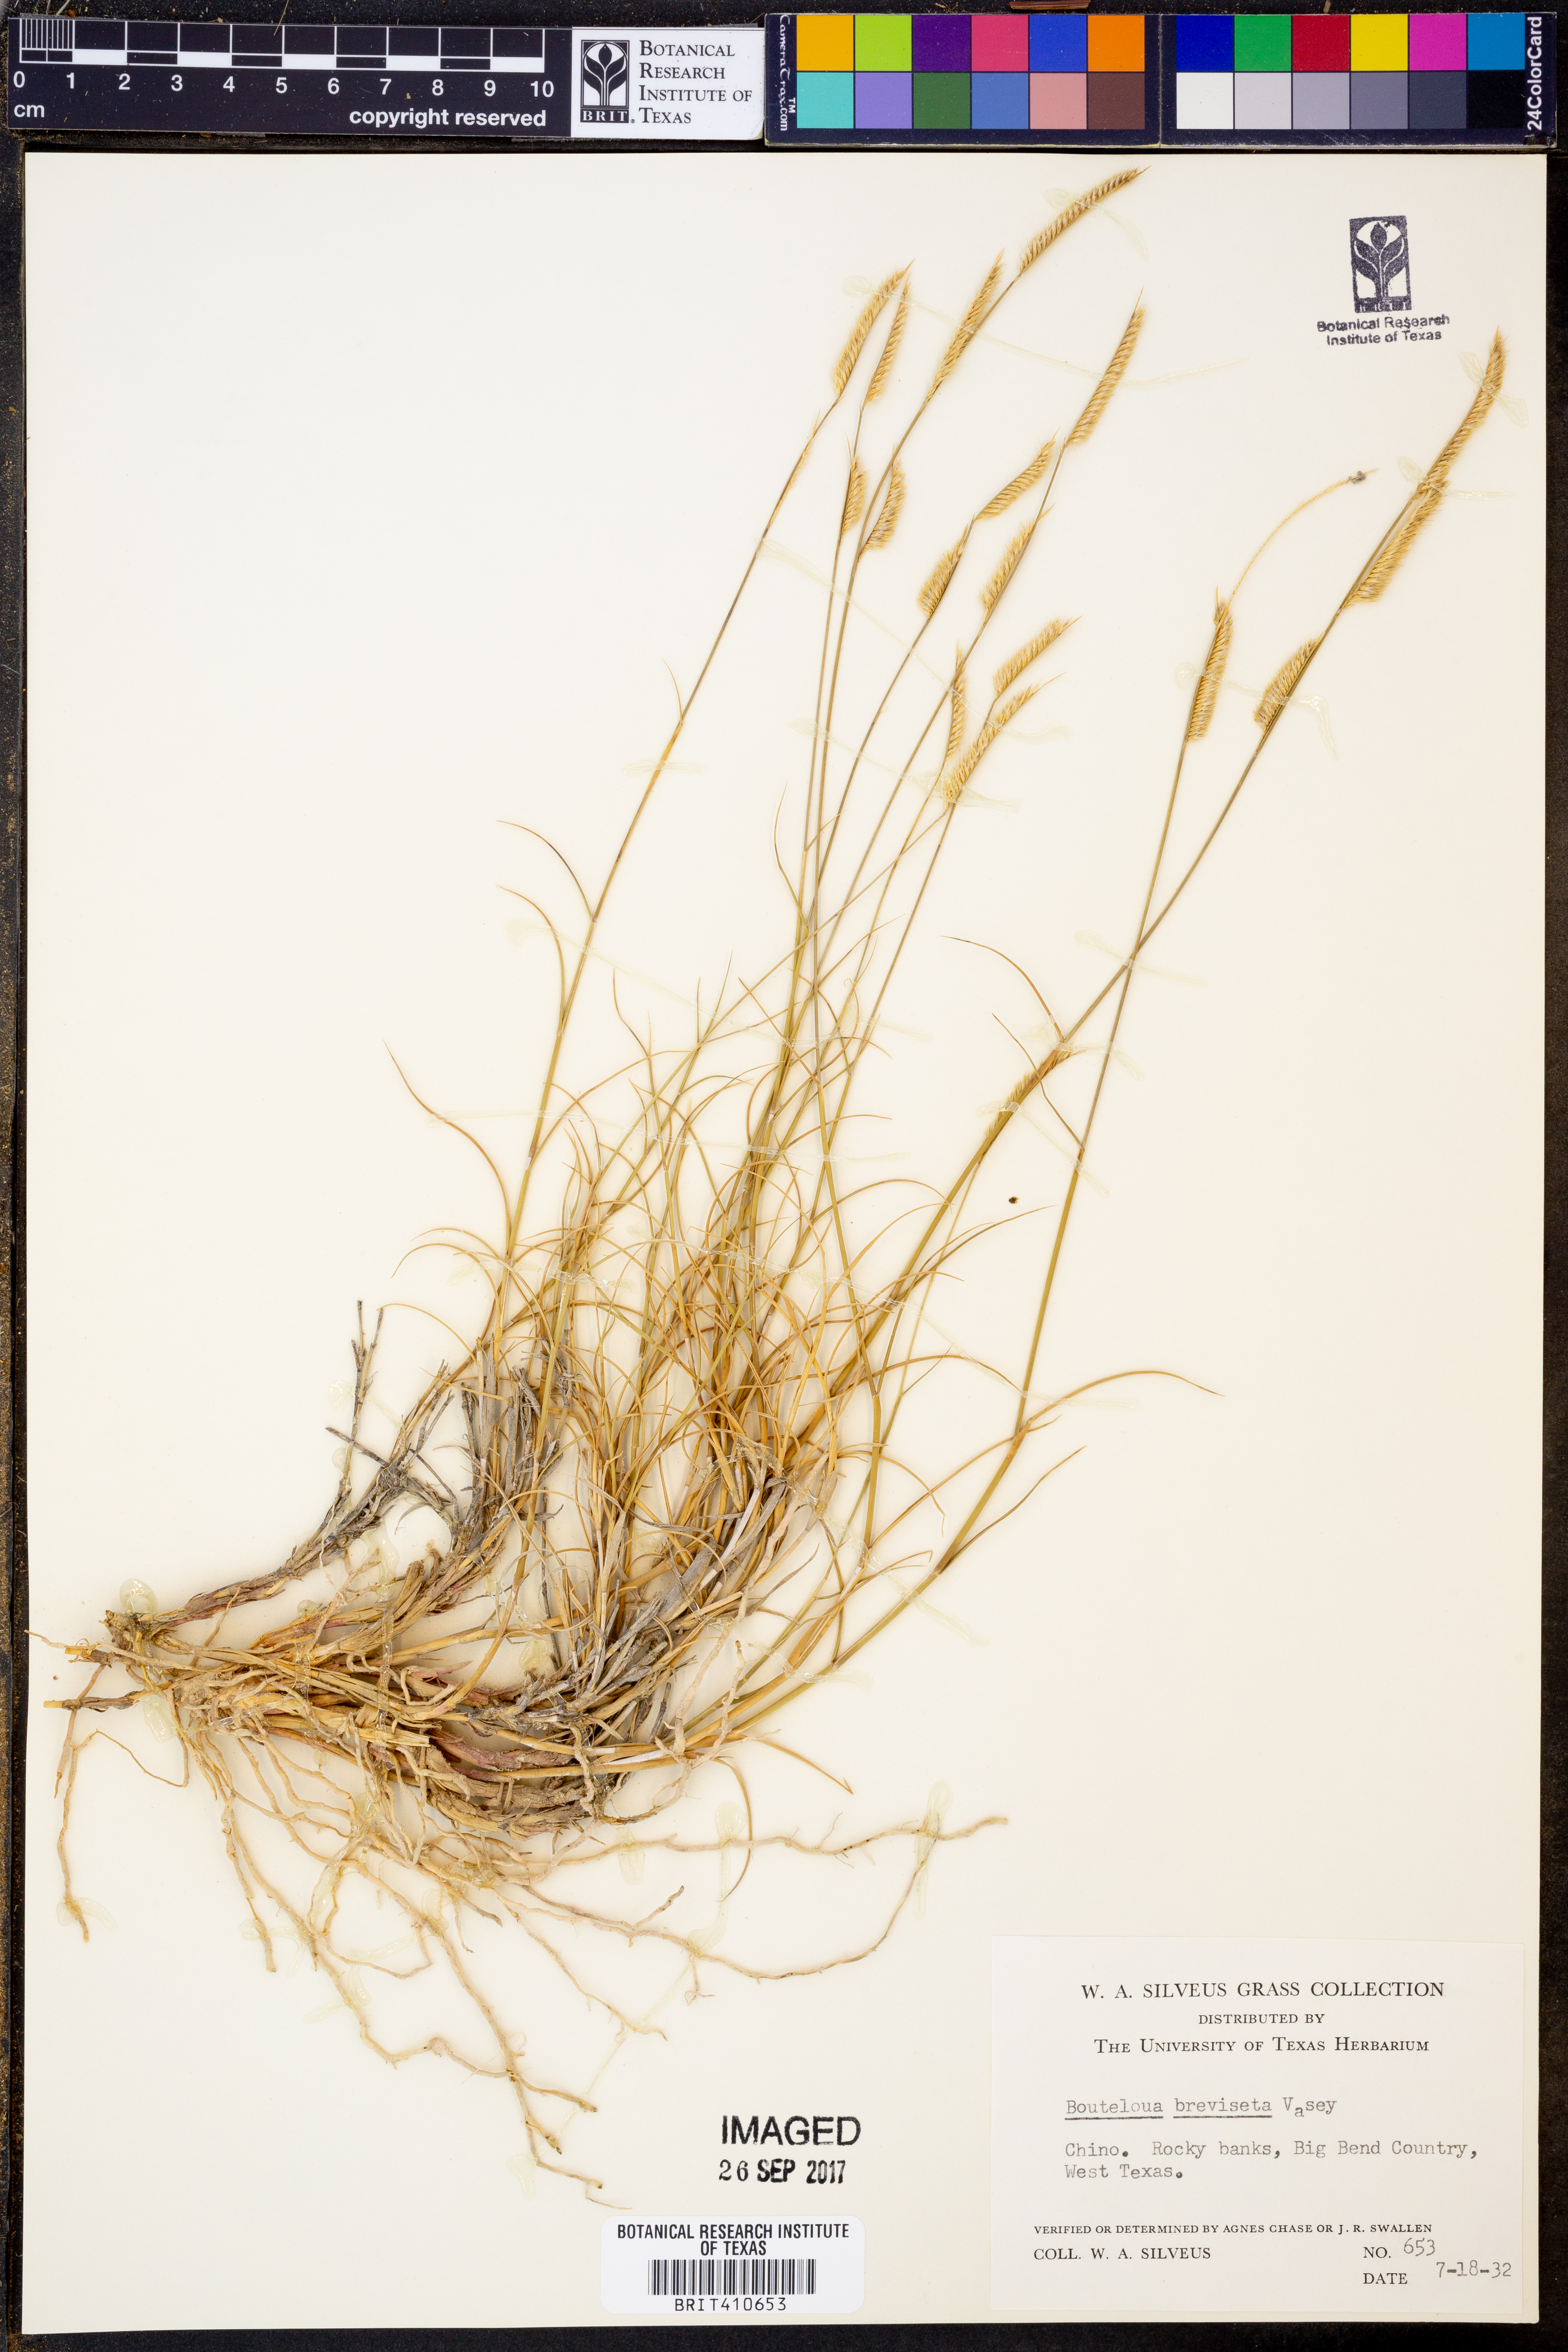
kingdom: Plantae
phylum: Tracheophyta
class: Liliopsida
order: Poales
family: Poaceae
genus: Bouteloua
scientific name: Bouteloua breviseta
